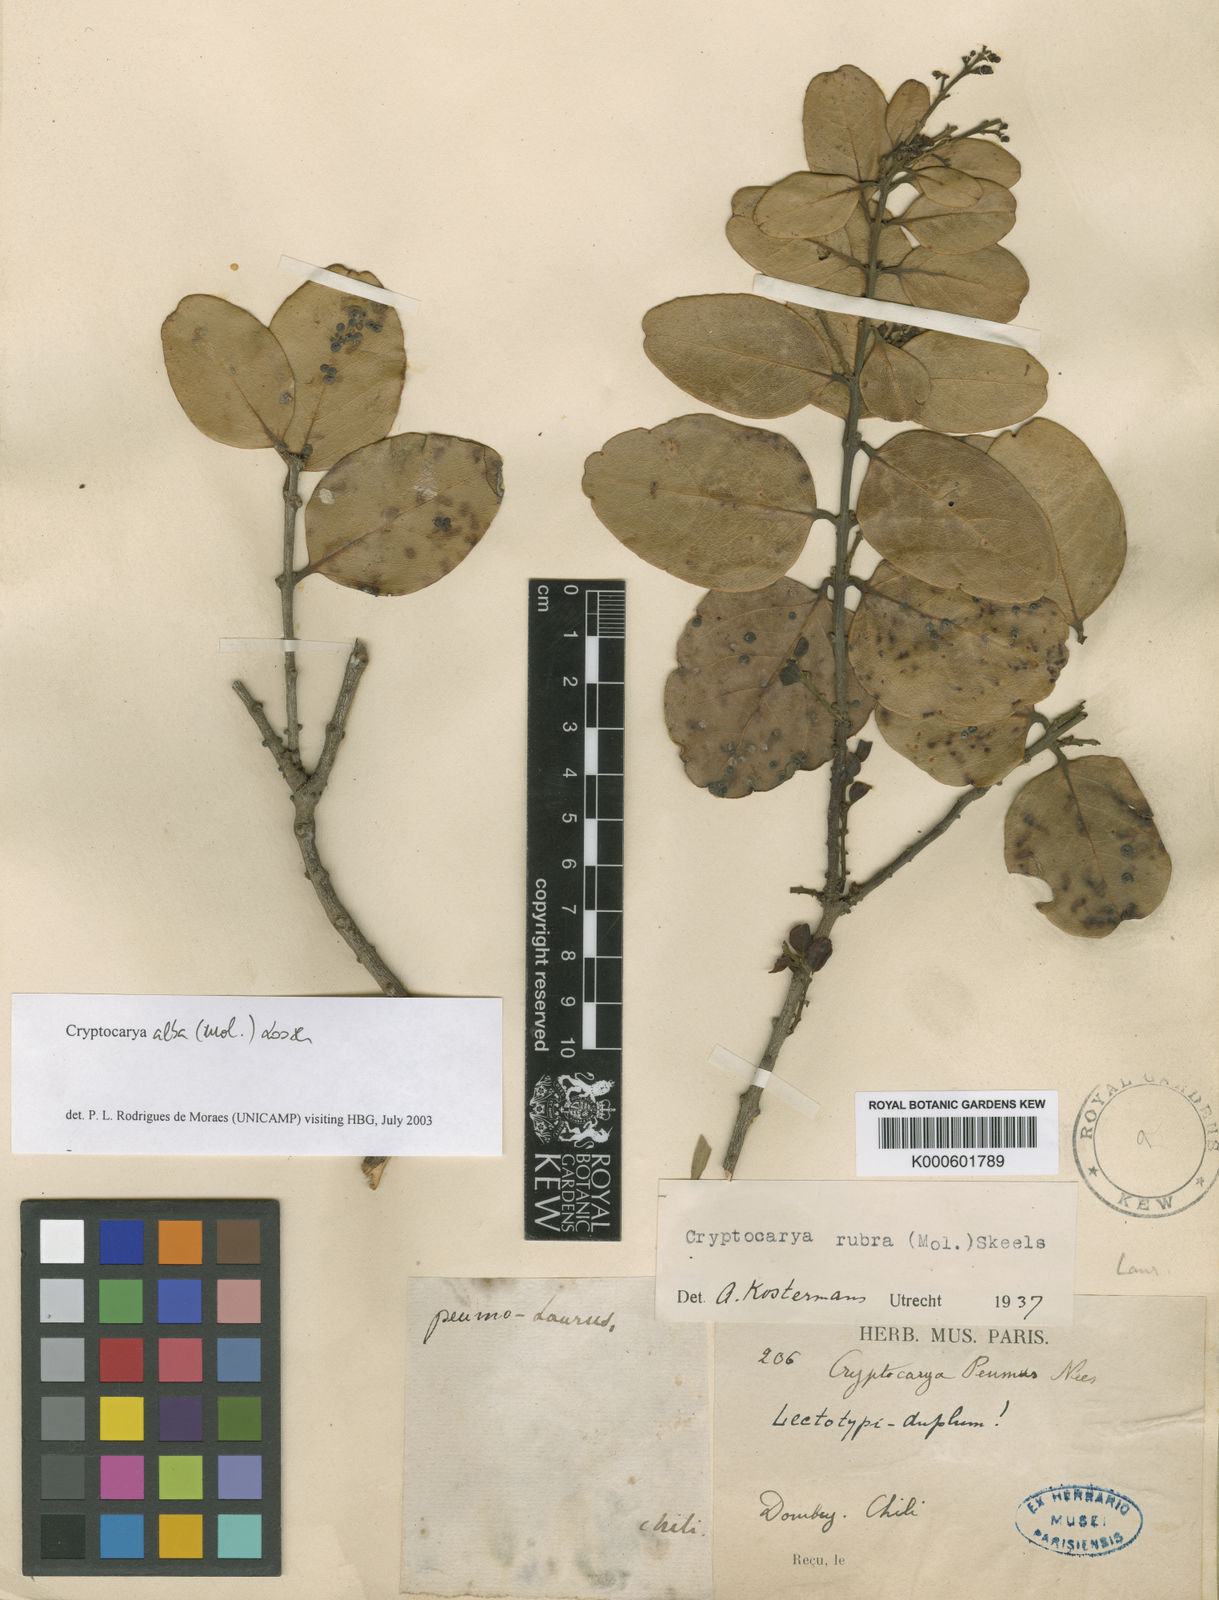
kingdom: Plantae
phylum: Tracheophyta
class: Magnoliopsida
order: Laurales
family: Lauraceae
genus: Cryptocarya
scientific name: Cryptocarya alba
